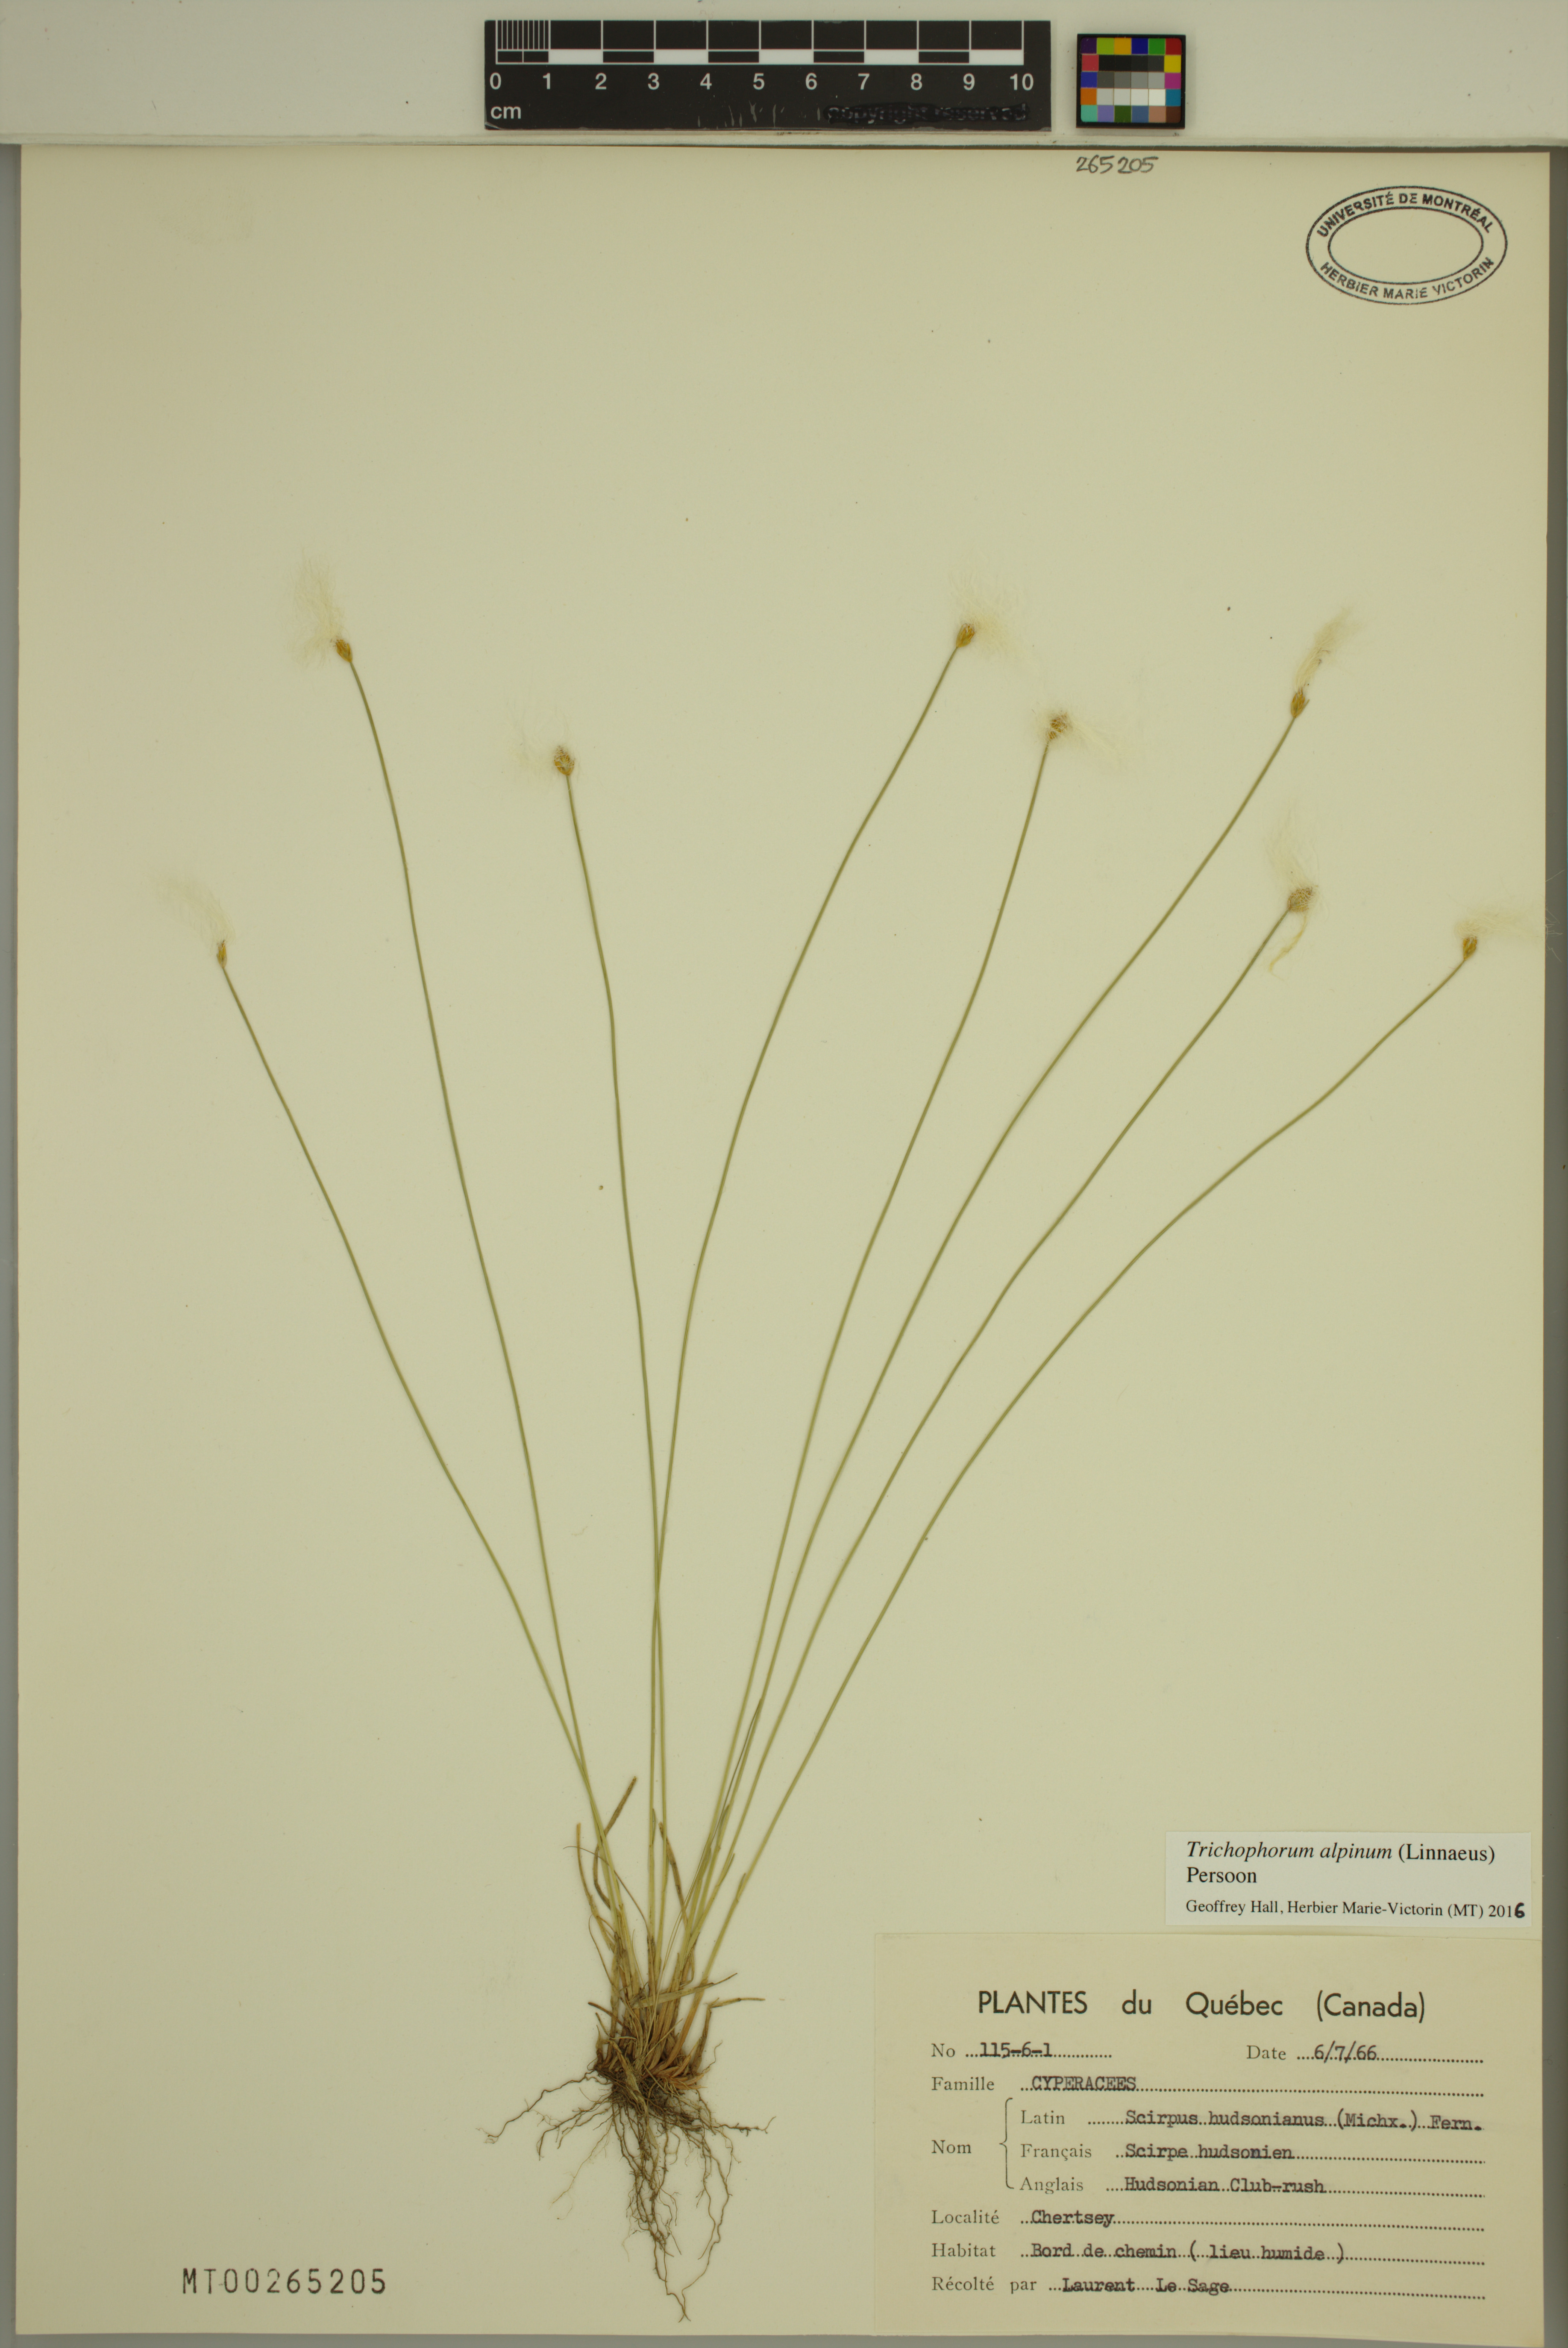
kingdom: Plantae
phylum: Tracheophyta
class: Liliopsida
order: Poales
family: Cyperaceae
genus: Trichophorum
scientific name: Trichophorum alpinum
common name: Alpine bulrush
